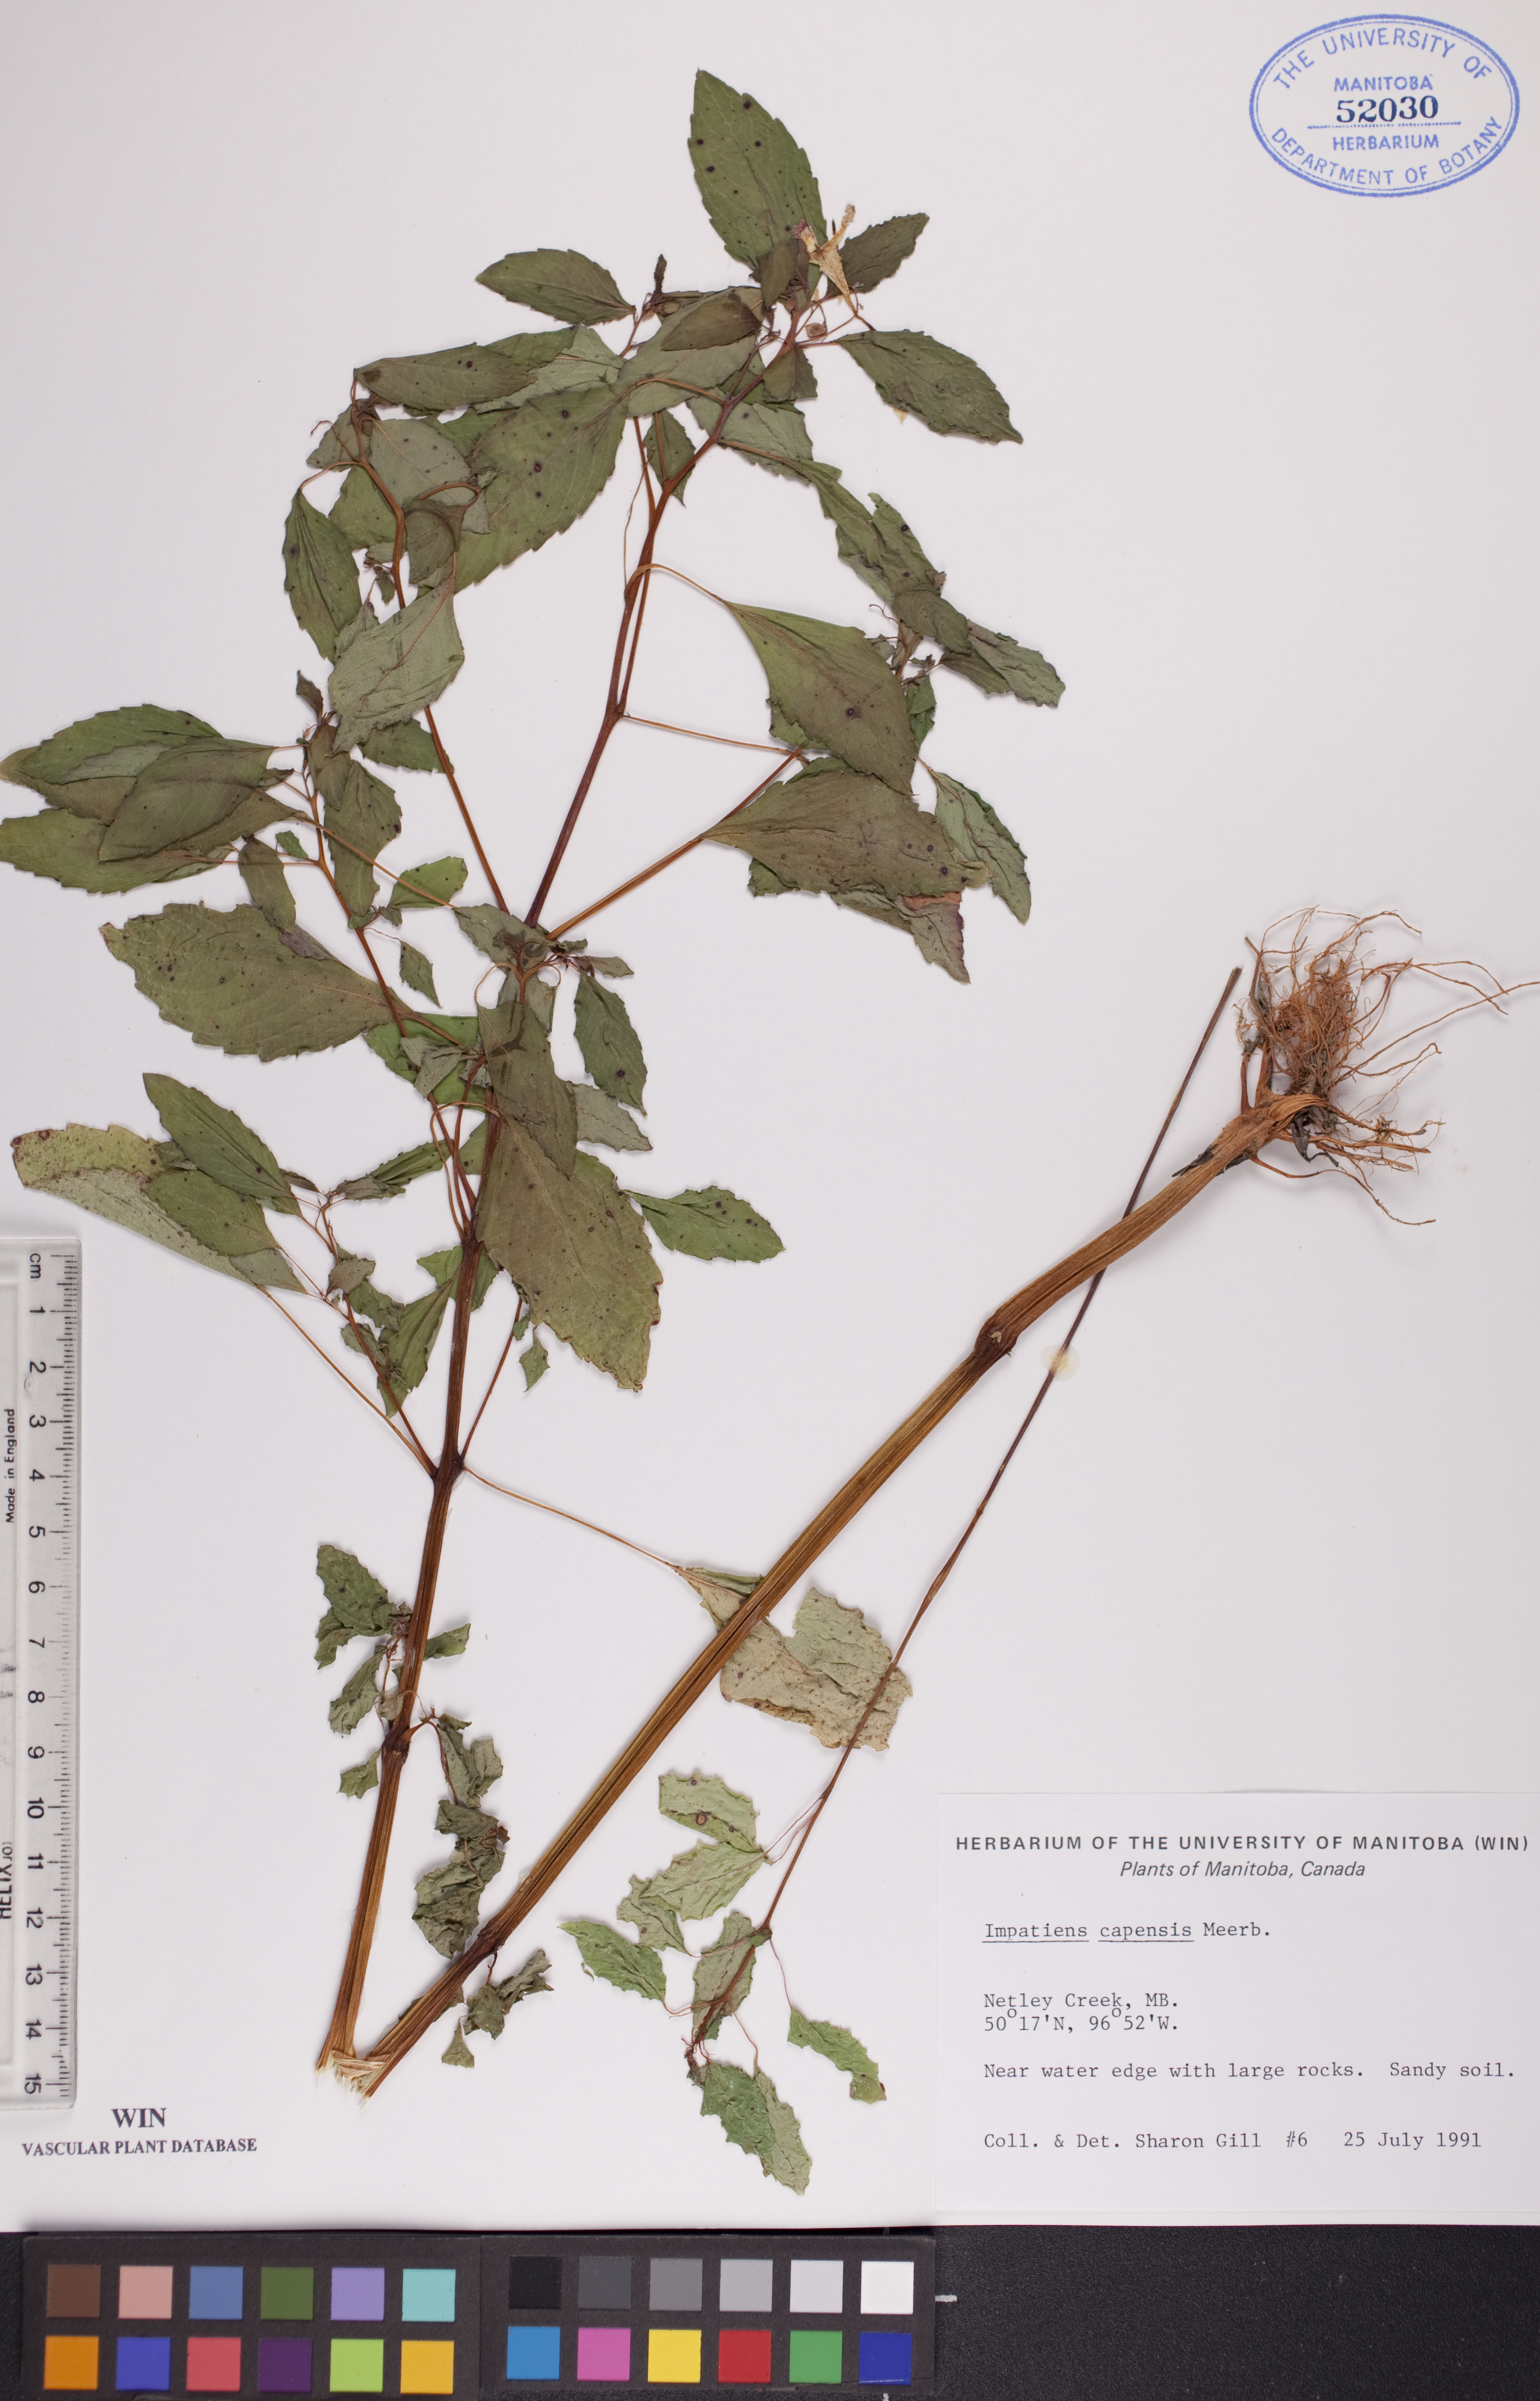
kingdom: Plantae
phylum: Tracheophyta
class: Magnoliopsida
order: Ericales
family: Balsaminaceae
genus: Impatiens
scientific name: Impatiens capensis
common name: Orange balsam
